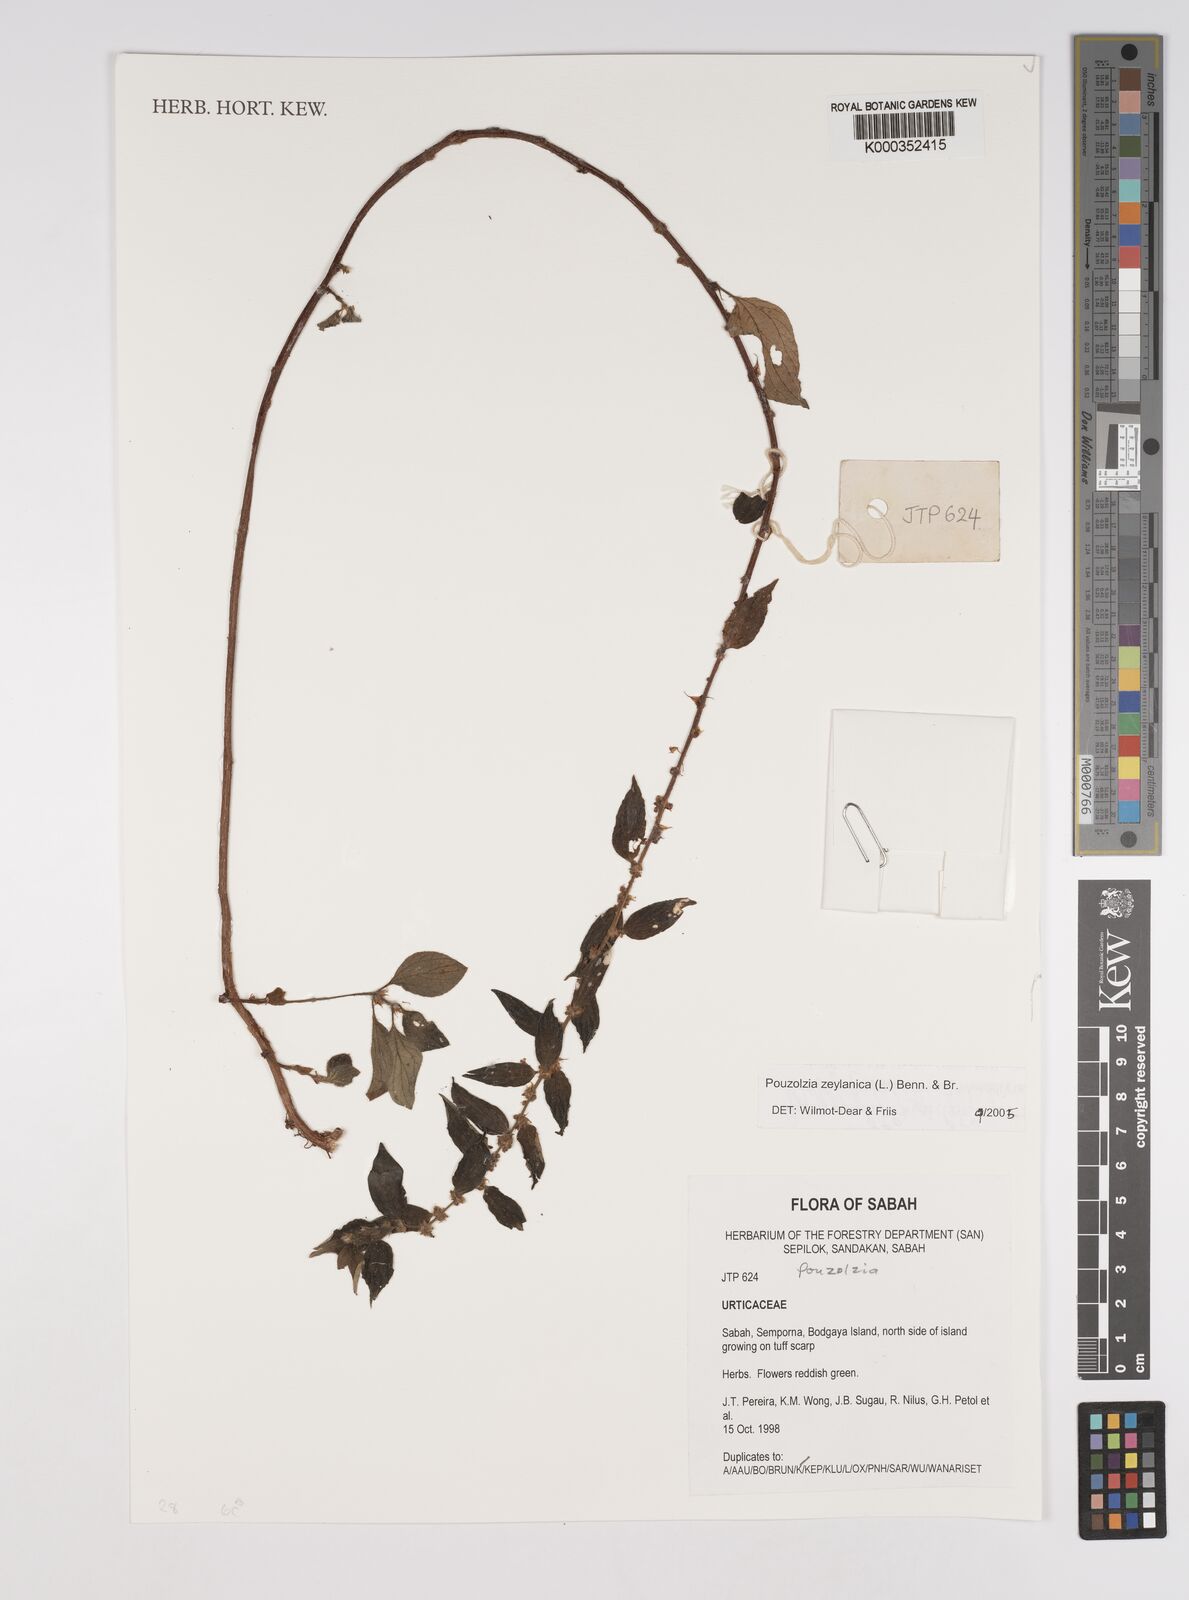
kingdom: Plantae
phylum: Tracheophyta
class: Magnoliopsida
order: Rosales
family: Urticaceae
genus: Pouzolzia
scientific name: Pouzolzia zeylanica
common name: Graceful pouzolzsbush
